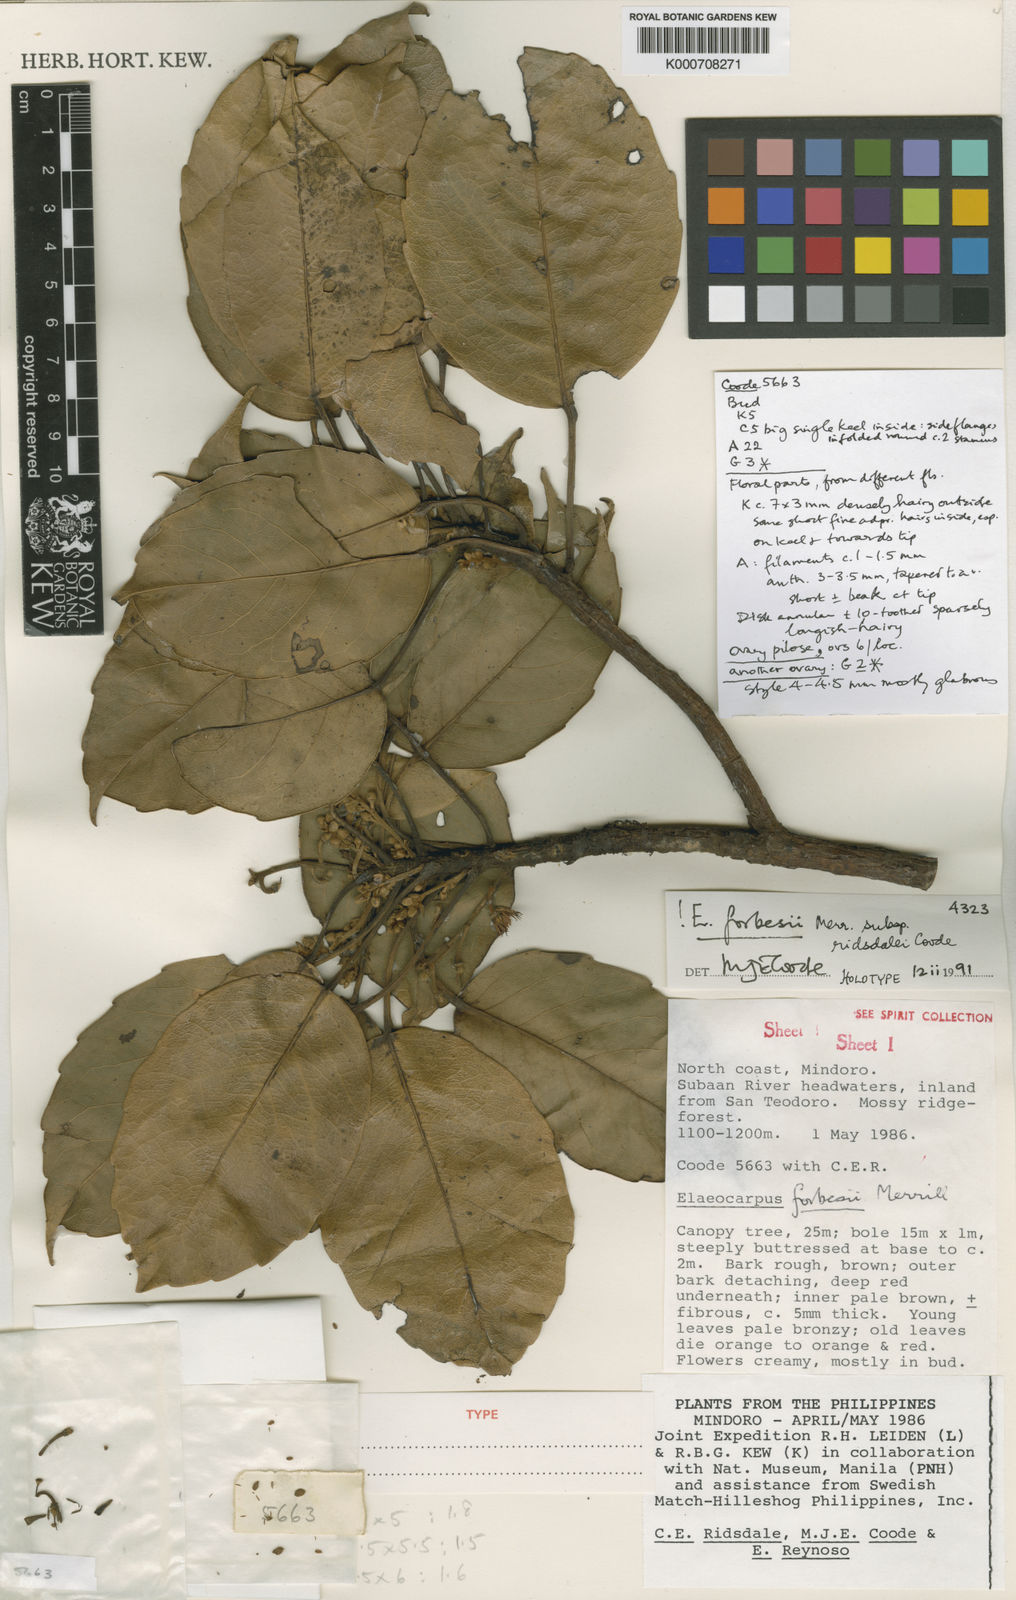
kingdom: Plantae
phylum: Tracheophyta
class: Magnoliopsida
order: Oxalidales
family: Elaeocarpaceae
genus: Elaeocarpus
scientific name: Elaeocarpus forbesii
